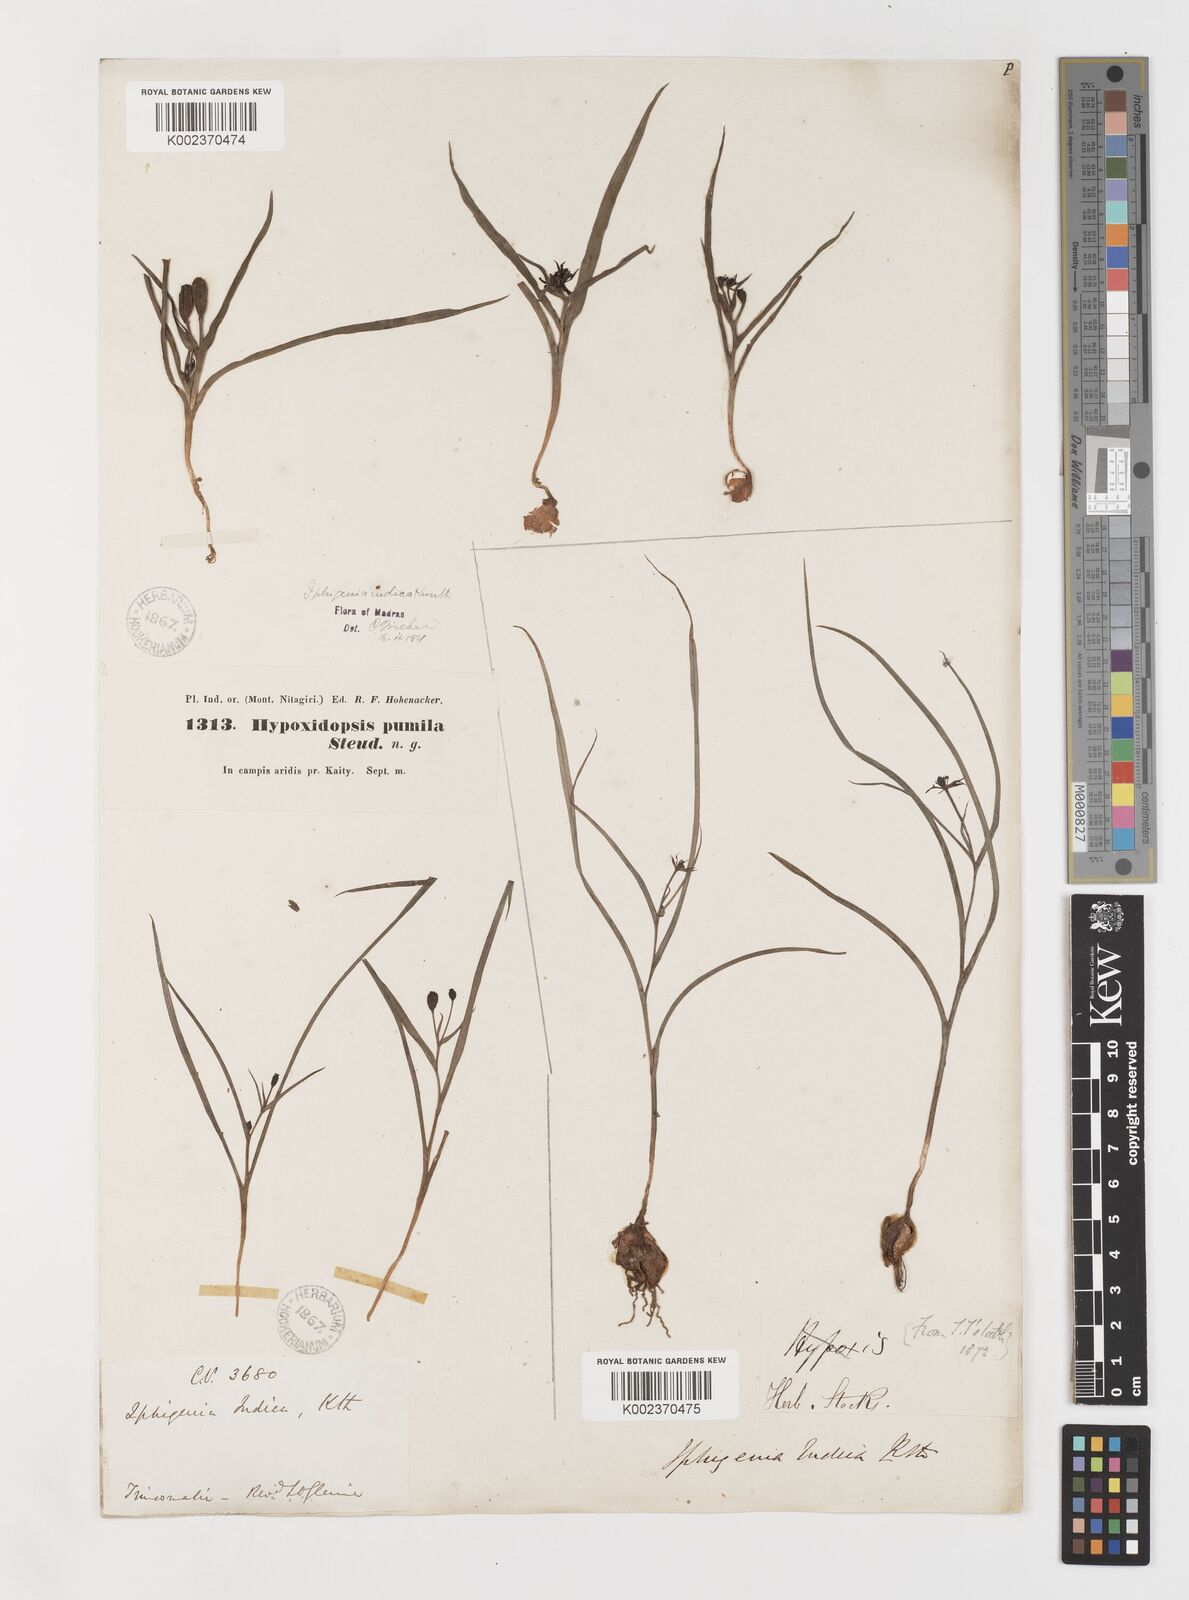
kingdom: Plantae
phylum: Tracheophyta
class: Liliopsida
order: Liliales
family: Colchicaceae
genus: Iphigenia
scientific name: Iphigenia indica
